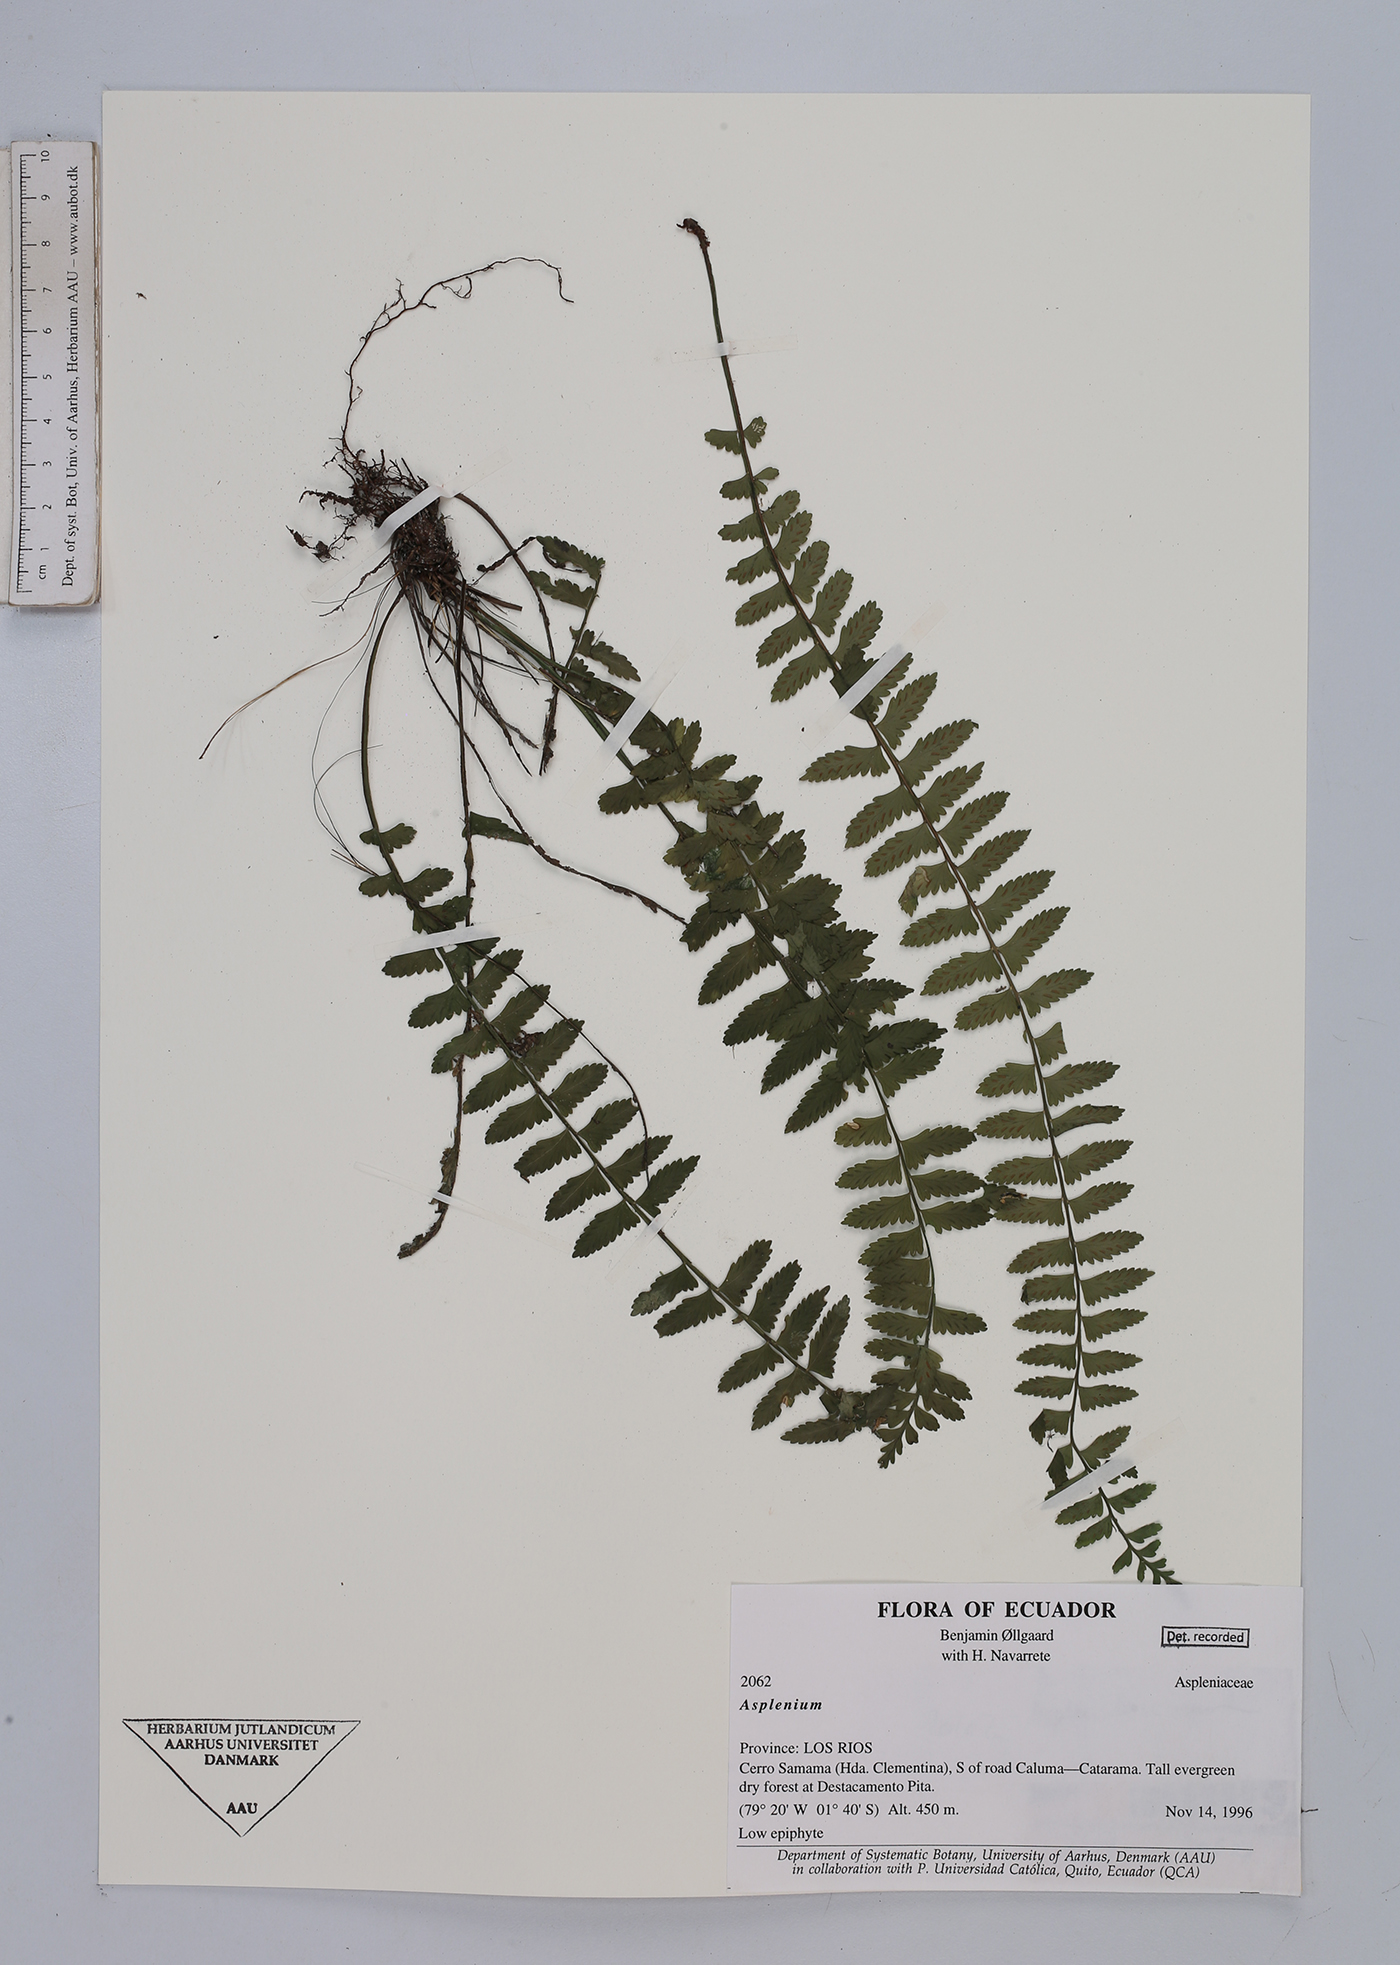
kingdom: Plantae
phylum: Tracheophyta
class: Polypodiopsida
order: Polypodiales
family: Aspleniaceae
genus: Asplenium
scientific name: Asplenium
